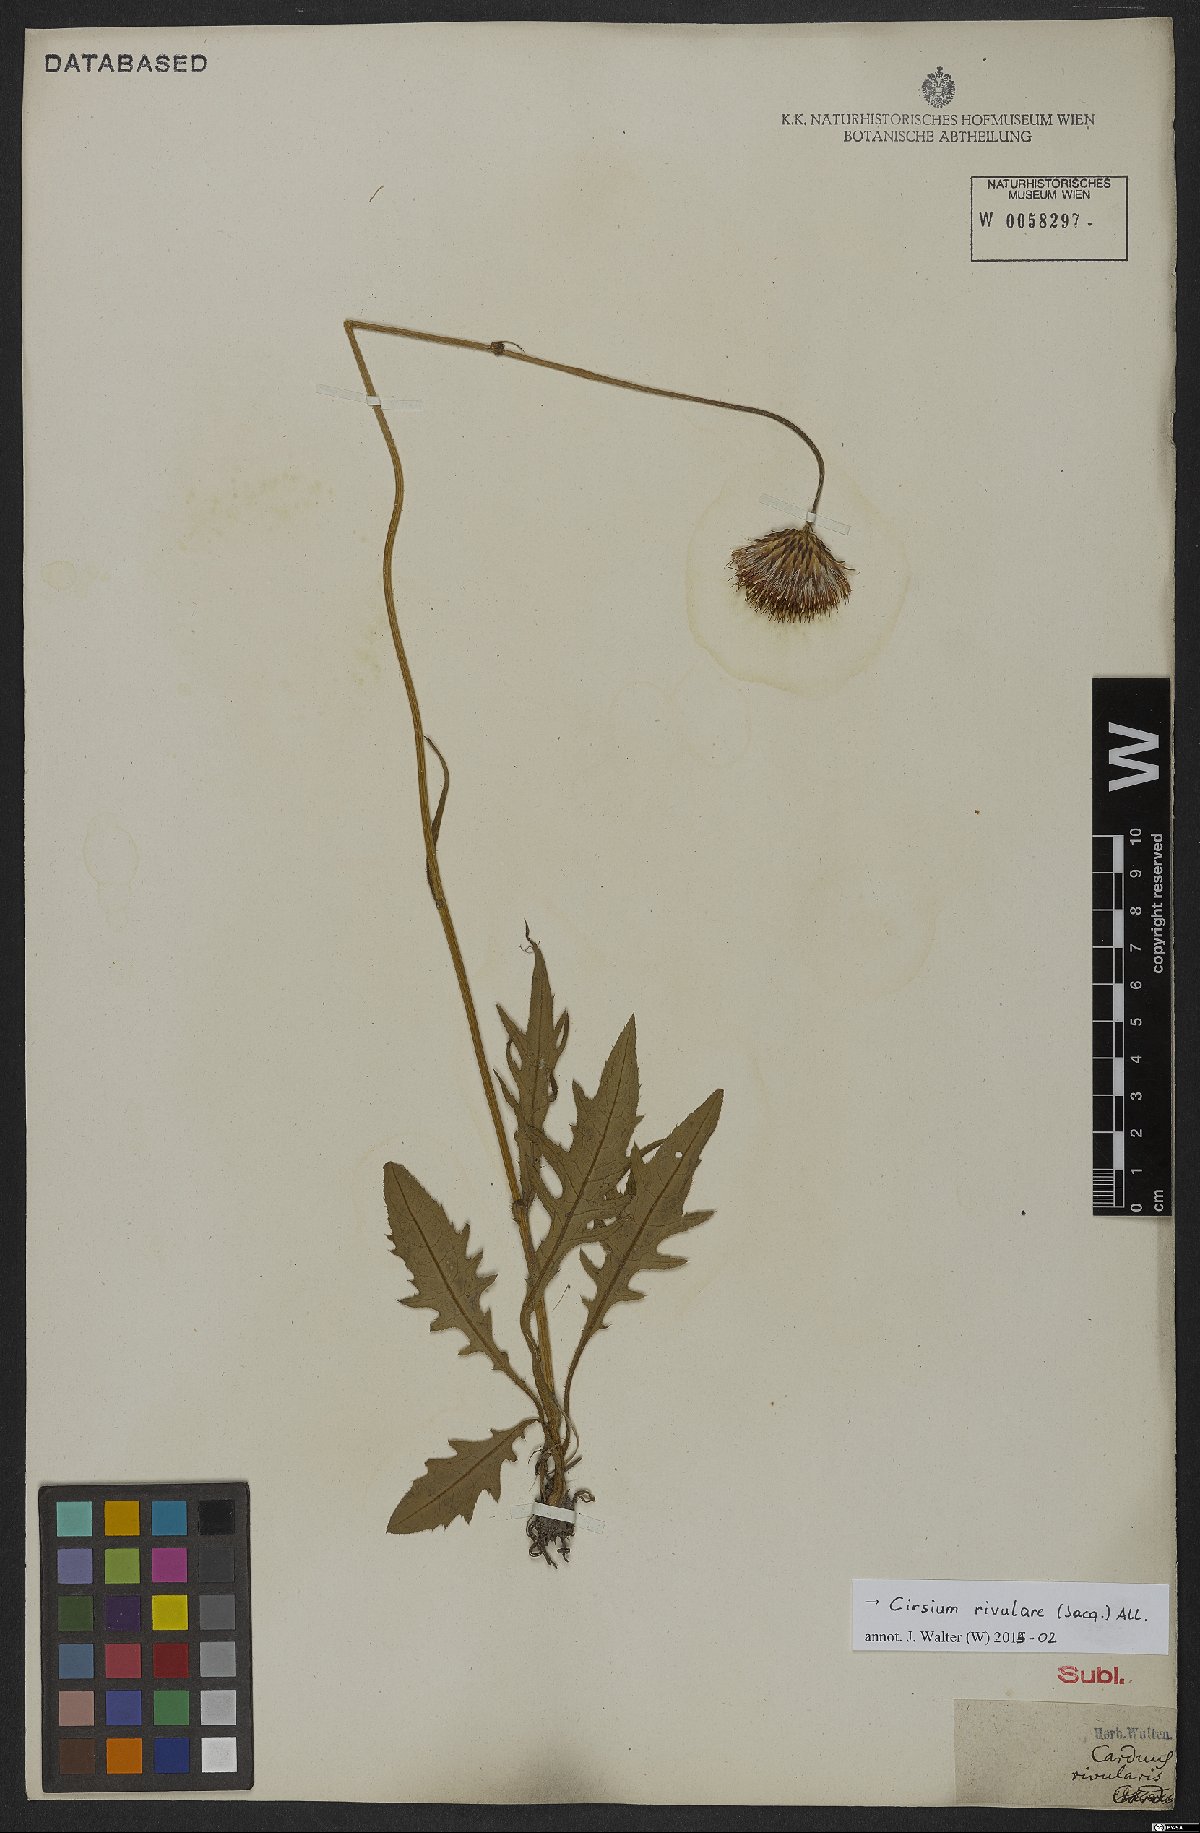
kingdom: Plantae
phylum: Tracheophyta
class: Magnoliopsida
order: Asterales
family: Asteraceae
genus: Cirsium
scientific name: Cirsium rivulare
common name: Brook thistle
